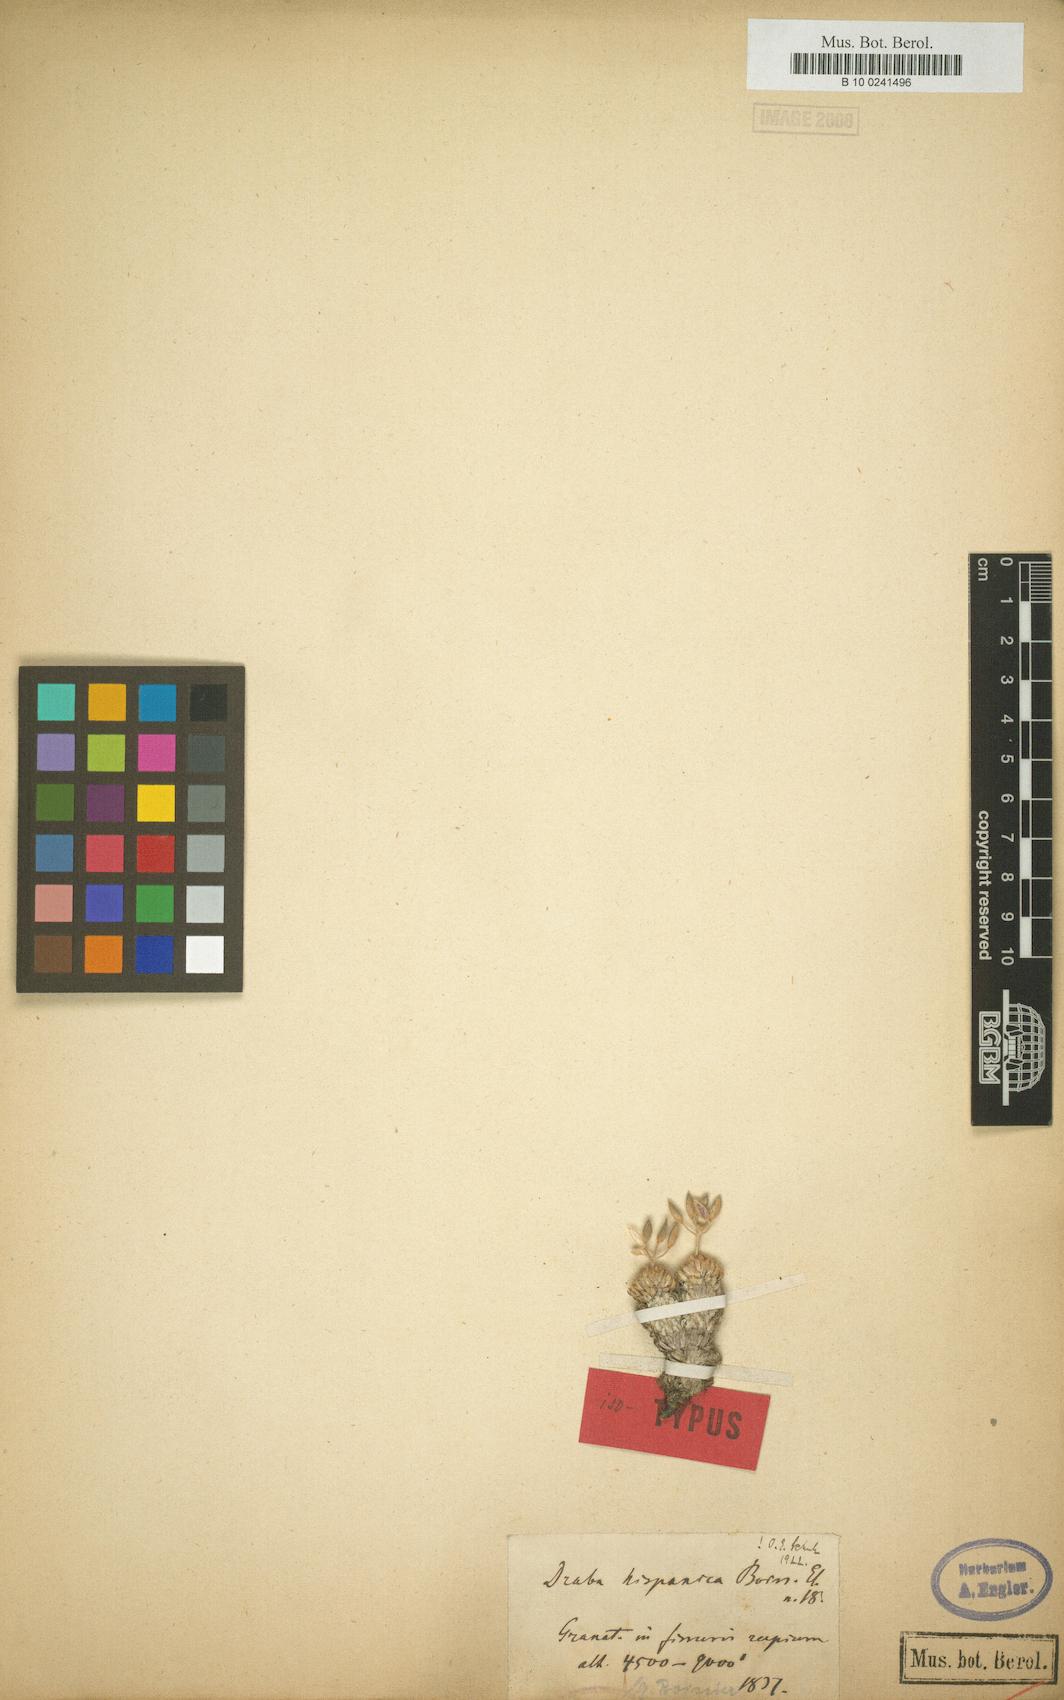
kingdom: Plantae
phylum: Tracheophyta
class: Magnoliopsida
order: Brassicales
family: Brassicaceae
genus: Draba
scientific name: Draba hispanica
